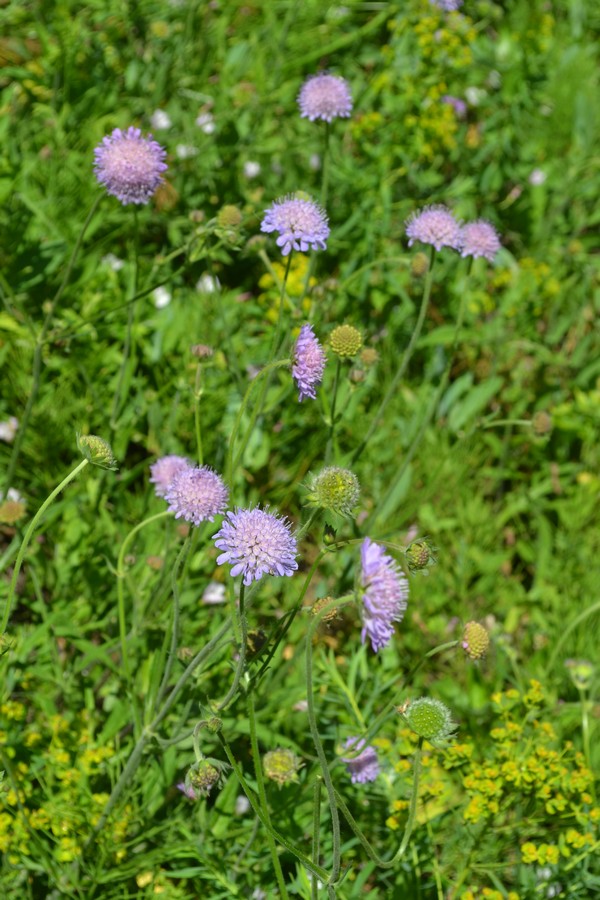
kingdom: Plantae
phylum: Tracheophyta
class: Magnoliopsida
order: Dipsacales
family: Caprifoliaceae
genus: Knautia
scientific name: Knautia arvensis
